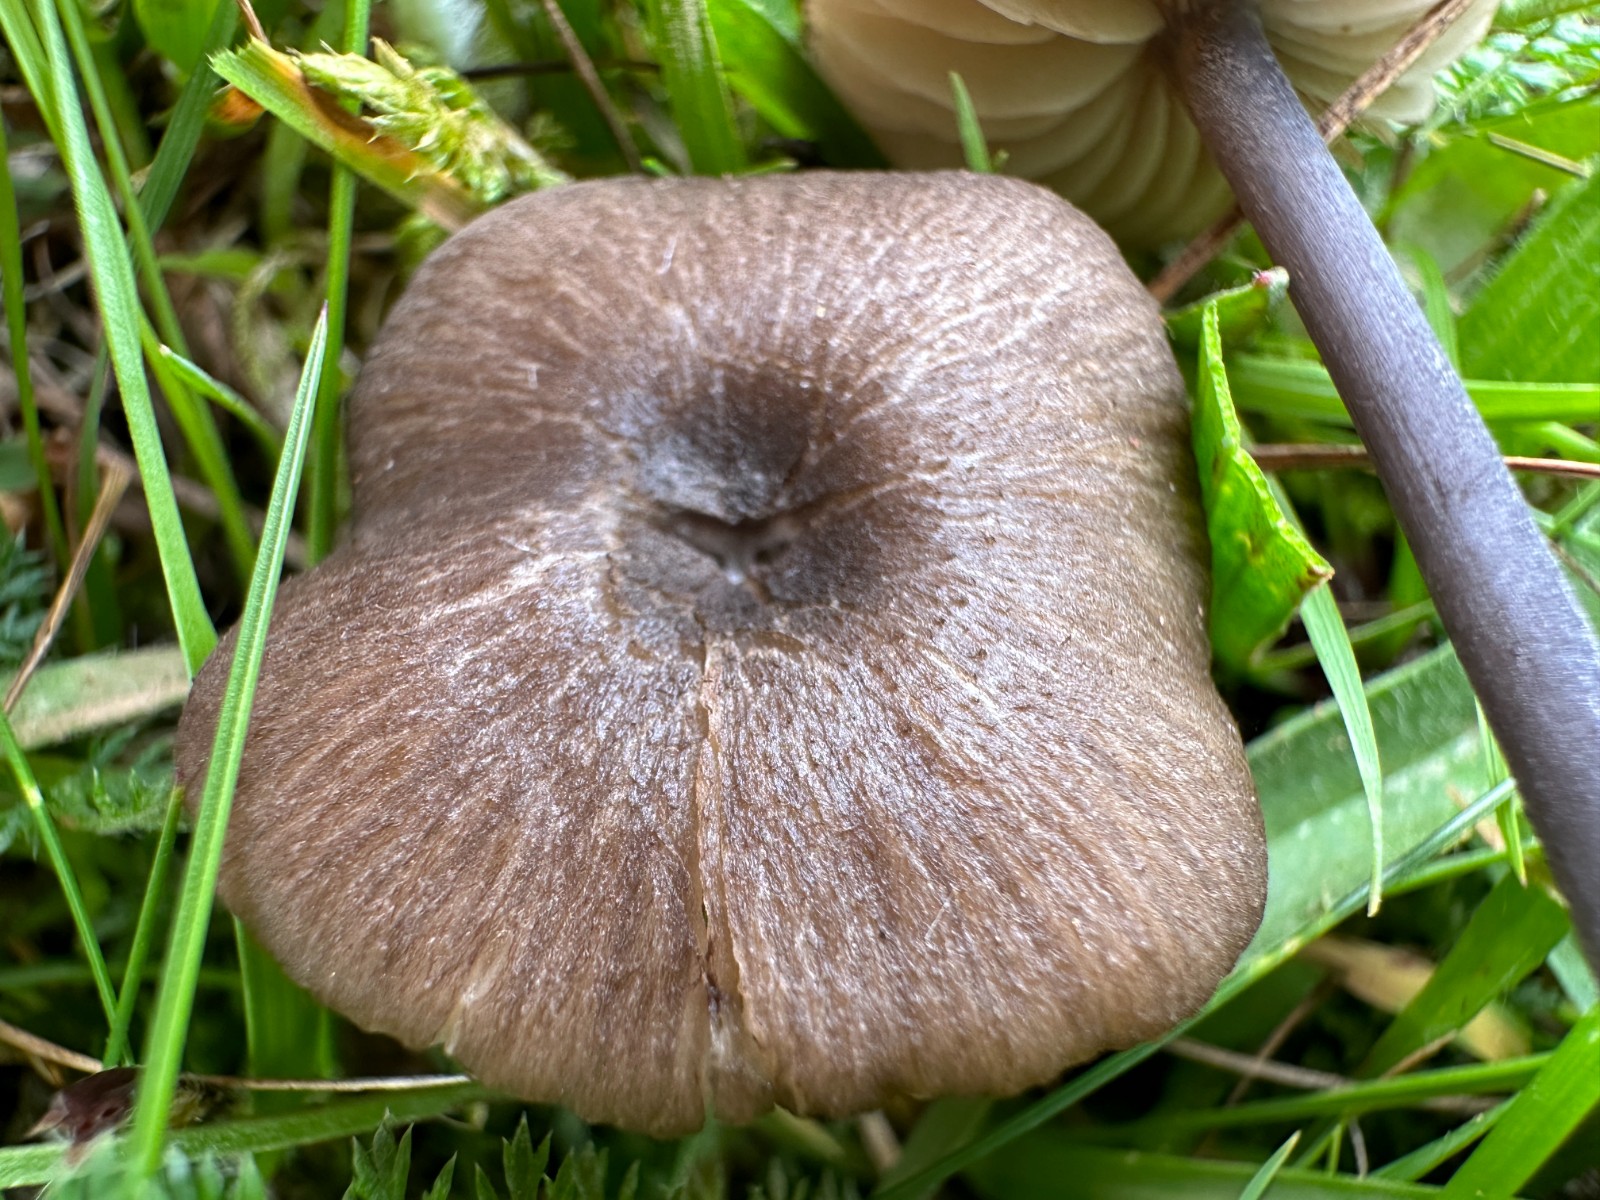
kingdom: Fungi
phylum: Basidiomycota
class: Agaricomycetes
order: Agaricales
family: Entolomataceae
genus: Entoloma
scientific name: Entoloma
